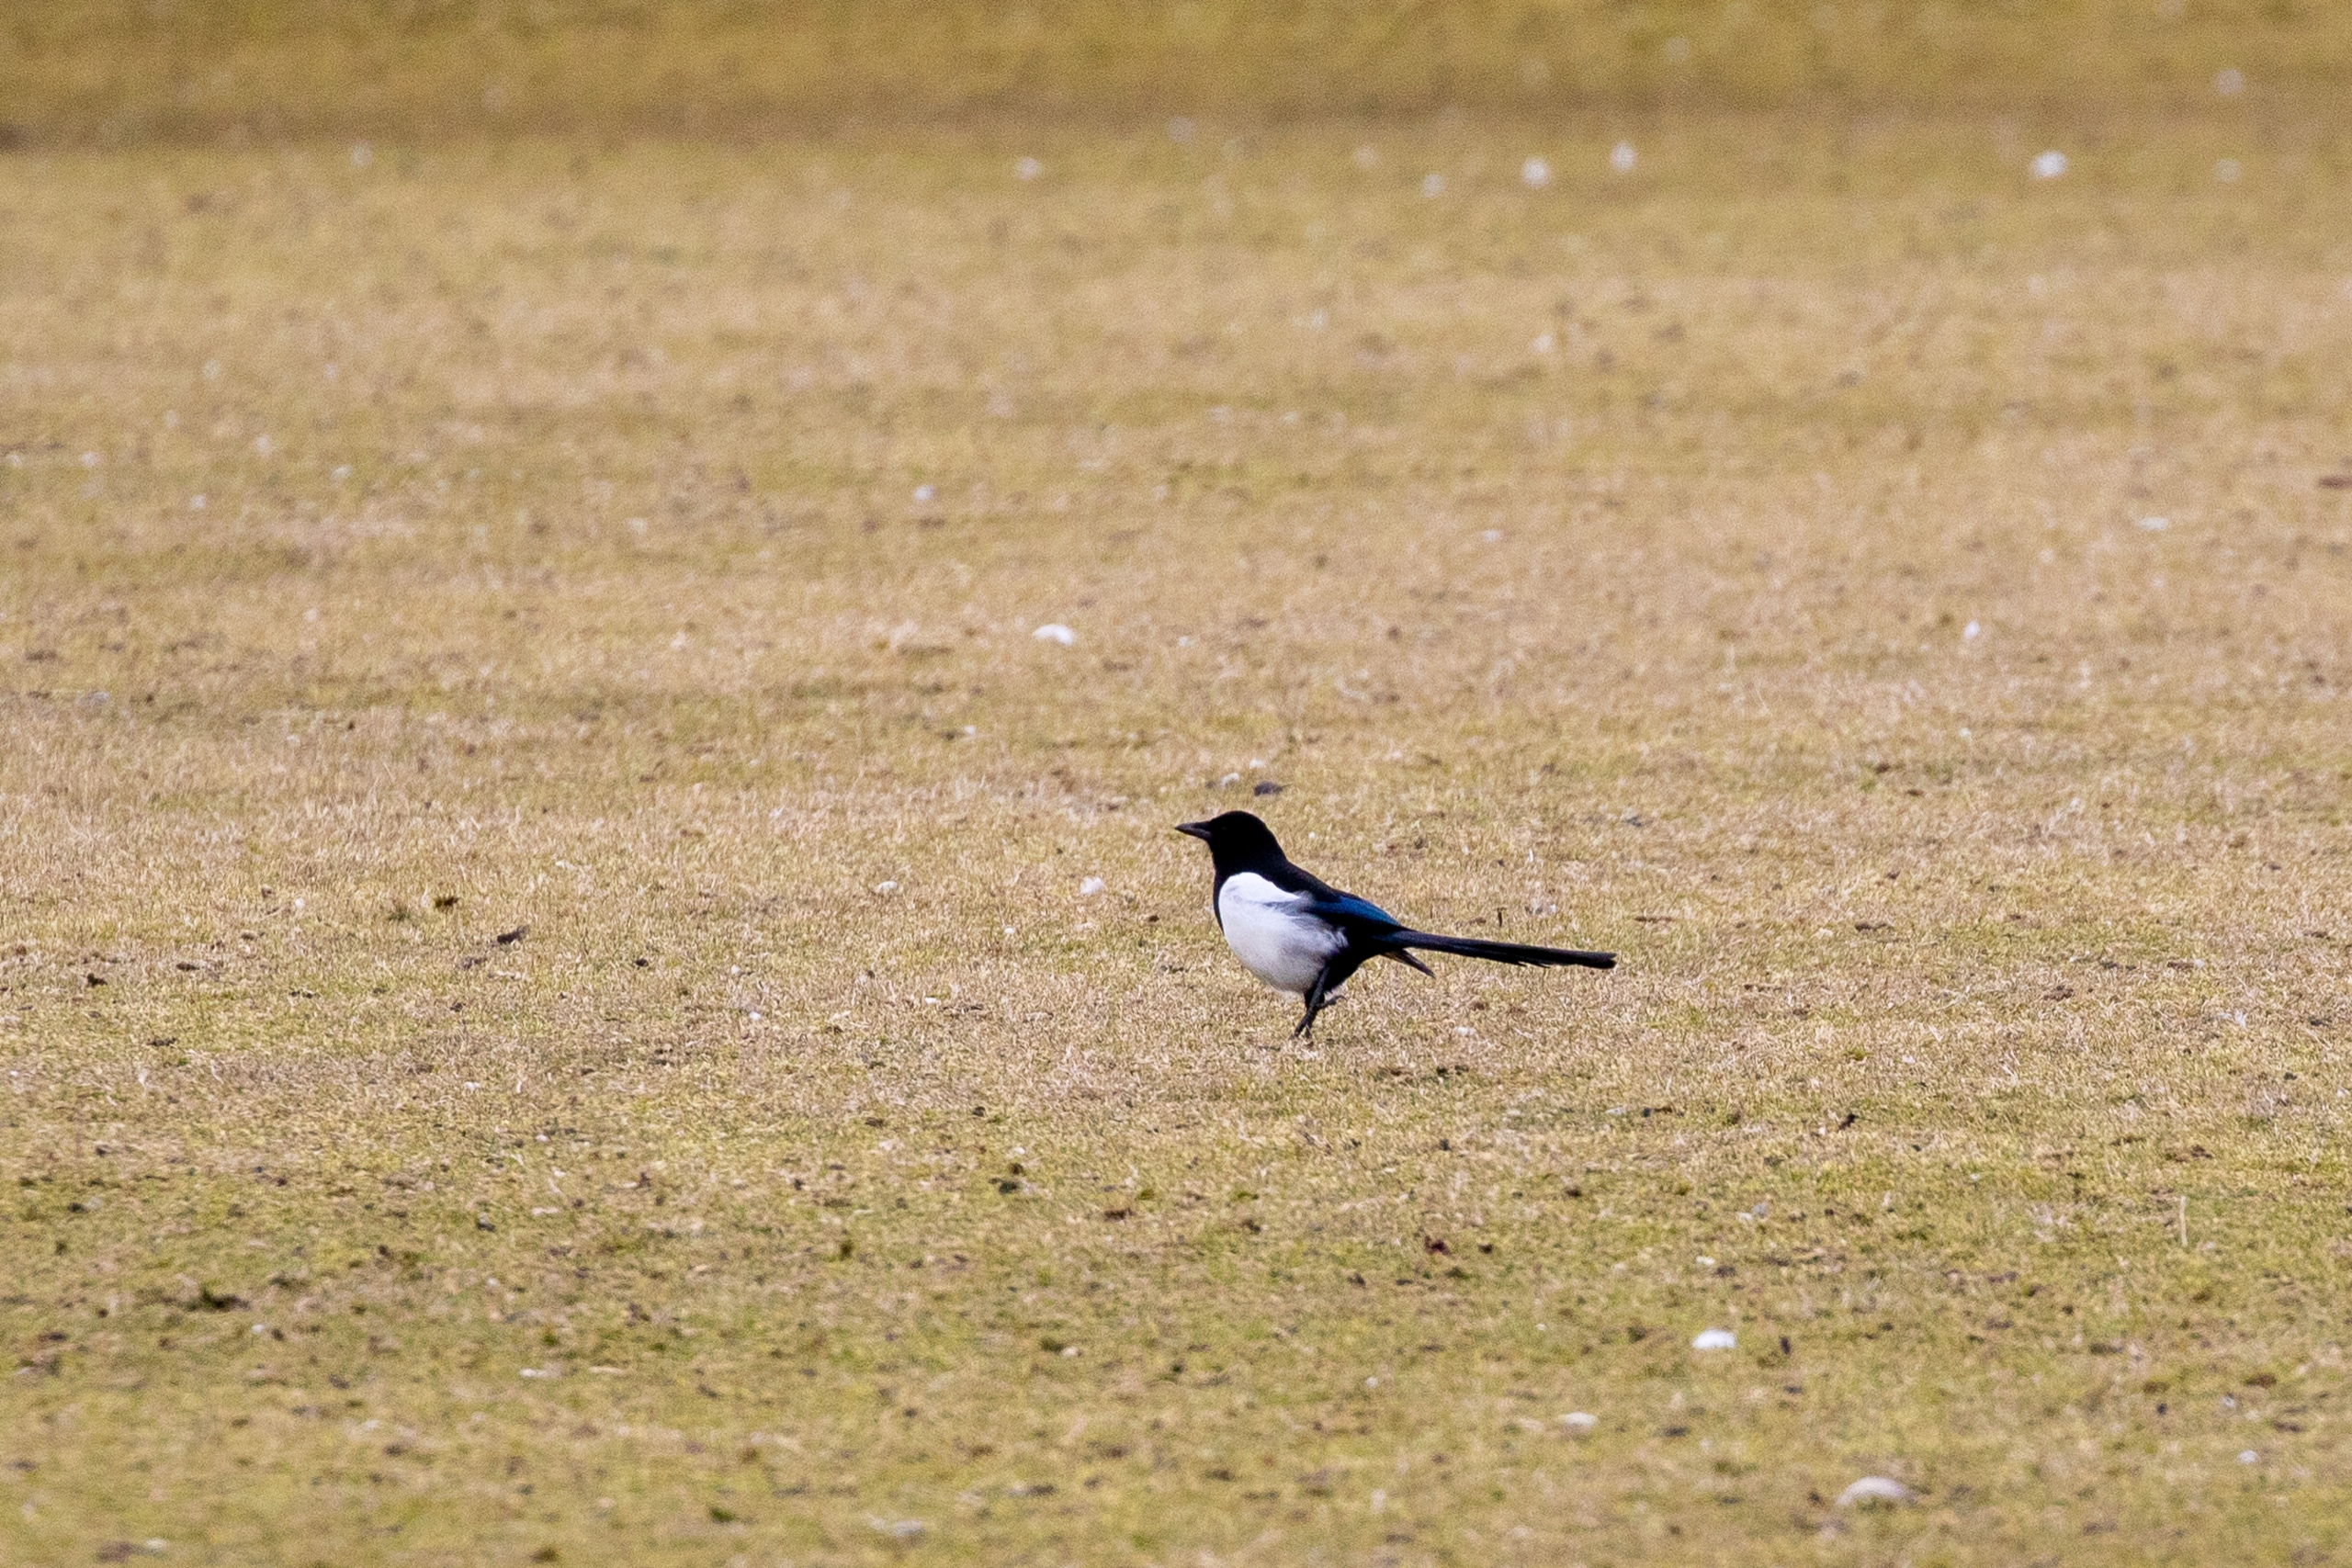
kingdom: Animalia
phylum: Chordata
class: Aves
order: Passeriformes
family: Corvidae
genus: Pica
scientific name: Pica pica
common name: Husskade
